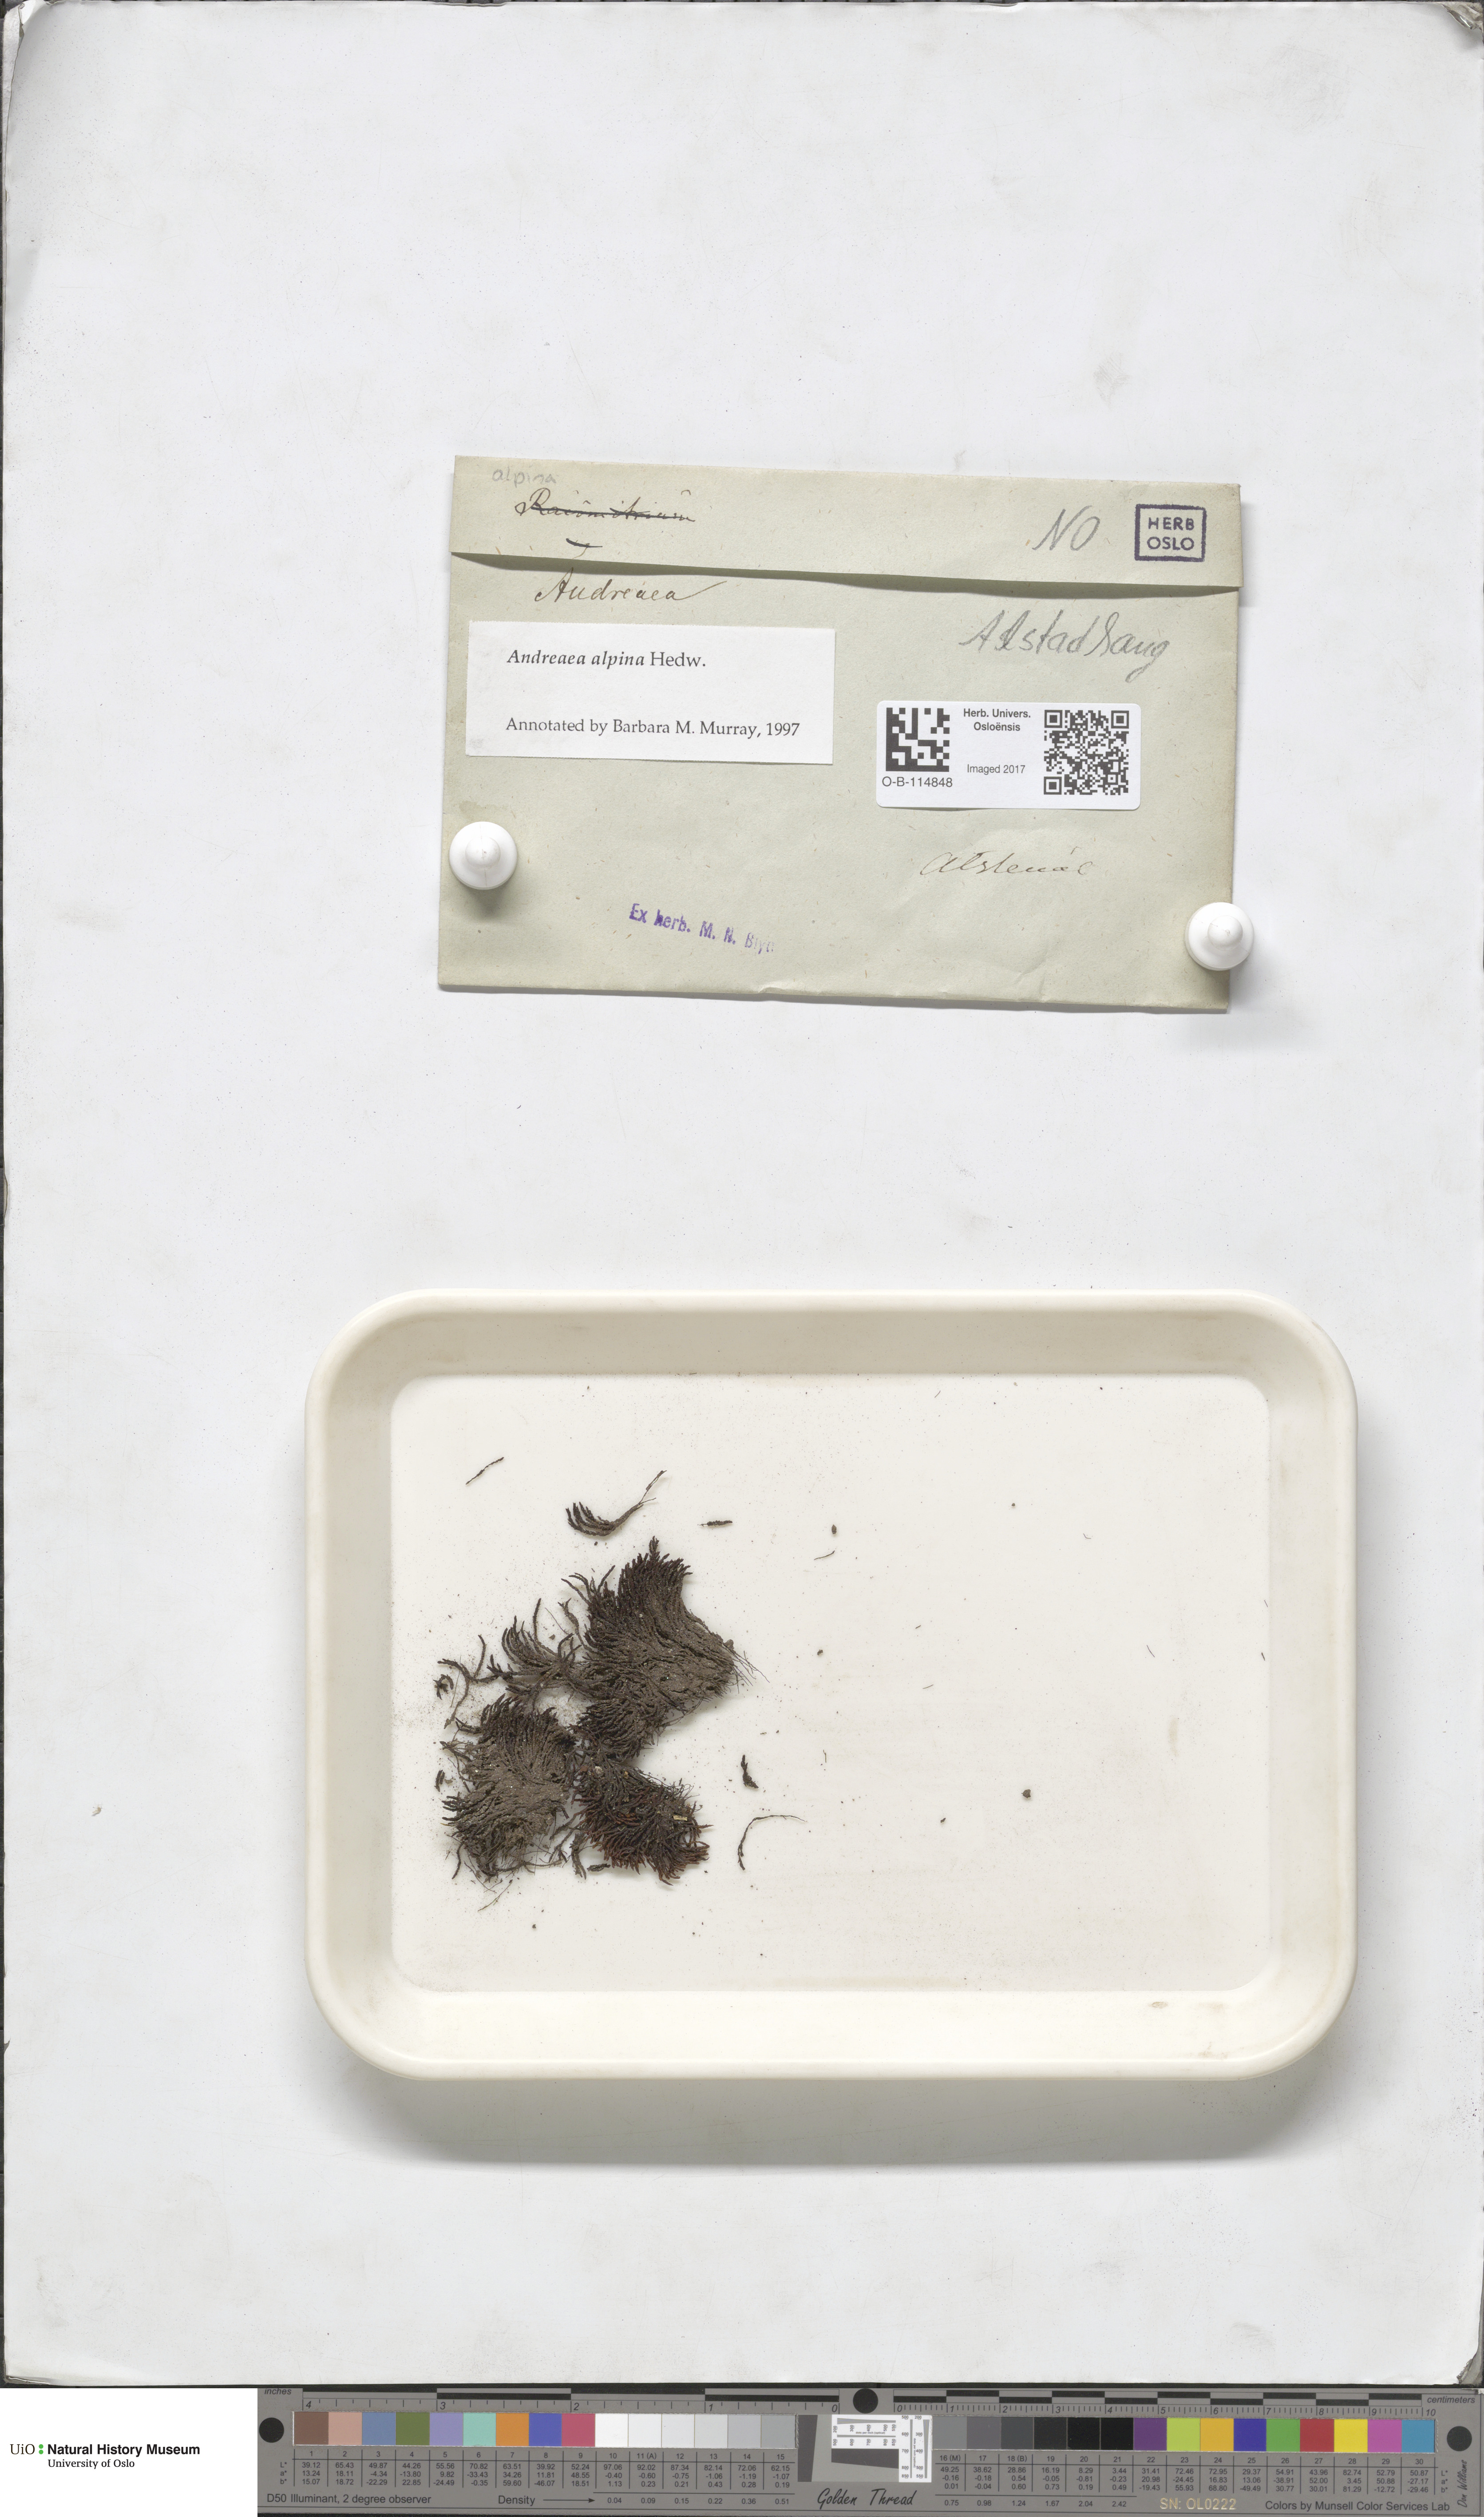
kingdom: Plantae
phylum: Bryophyta
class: Andreaeopsida
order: Andreaeales
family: Andreaeaceae
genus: Andreaea
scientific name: Andreaea hookeri
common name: Alpine rock-moss
